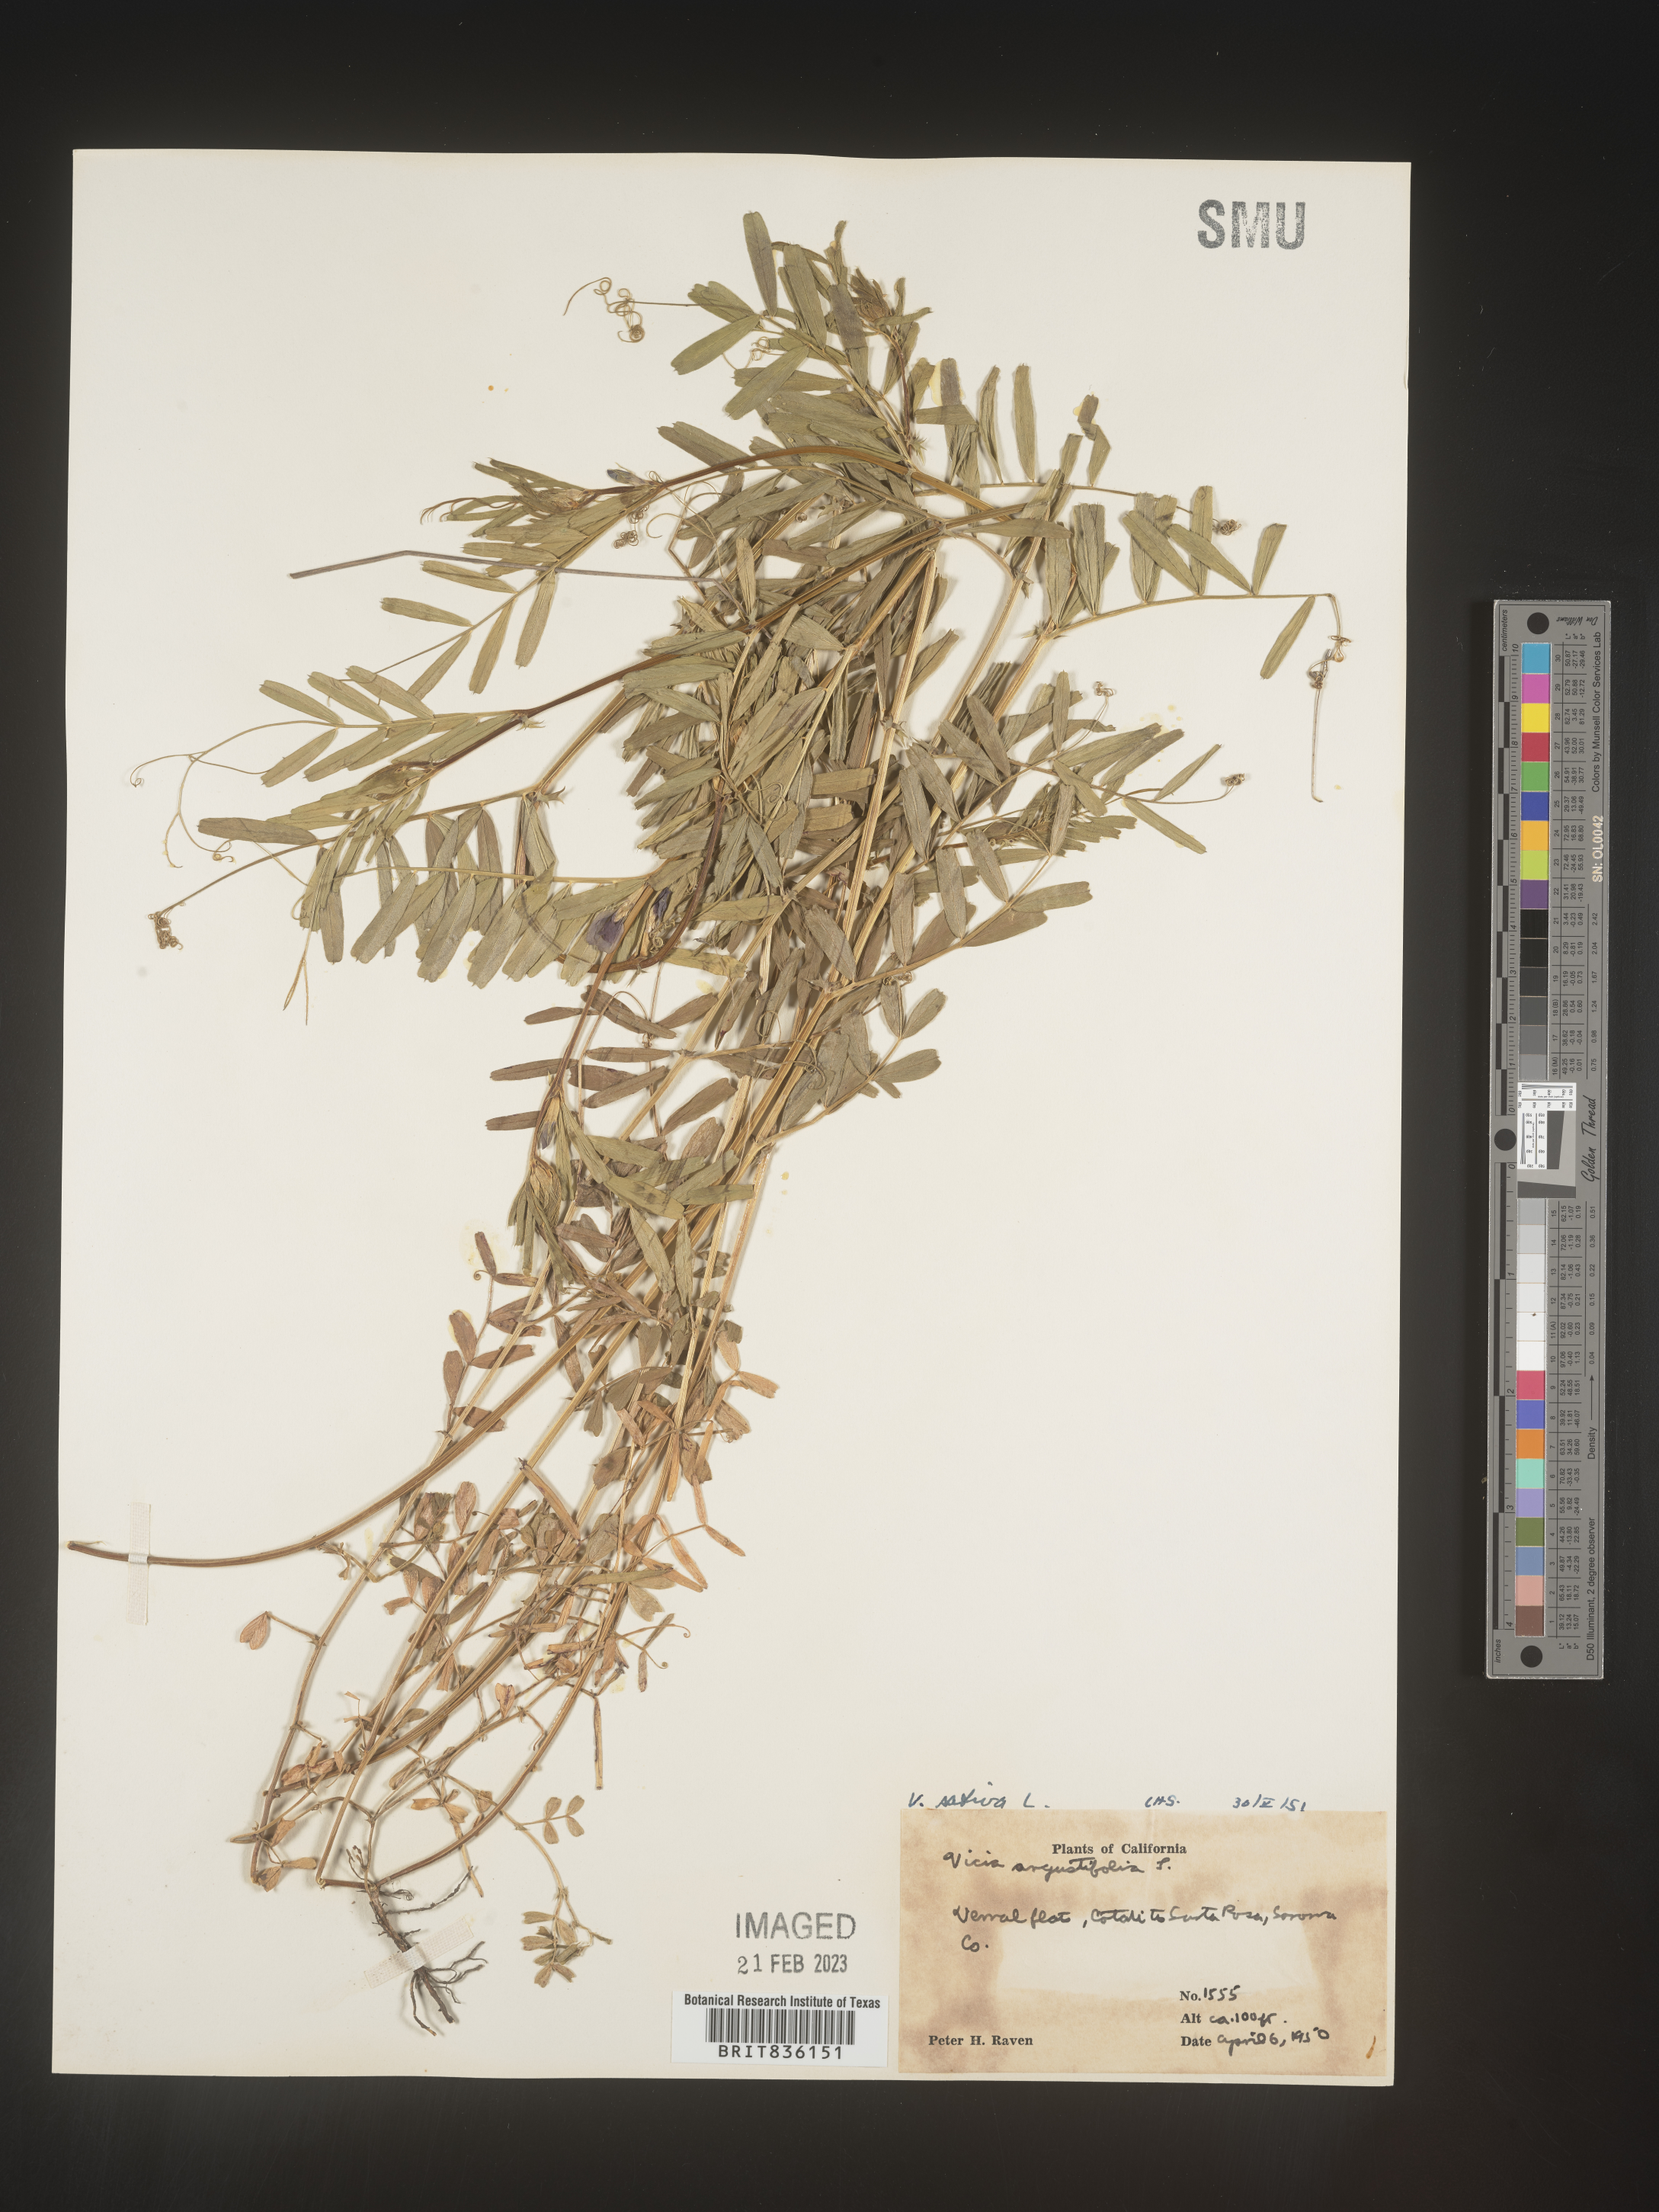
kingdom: Plantae
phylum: Tracheophyta
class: Magnoliopsida
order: Fabales
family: Fabaceae
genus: Vicia
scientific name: Vicia sativa
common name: Garden vetch
